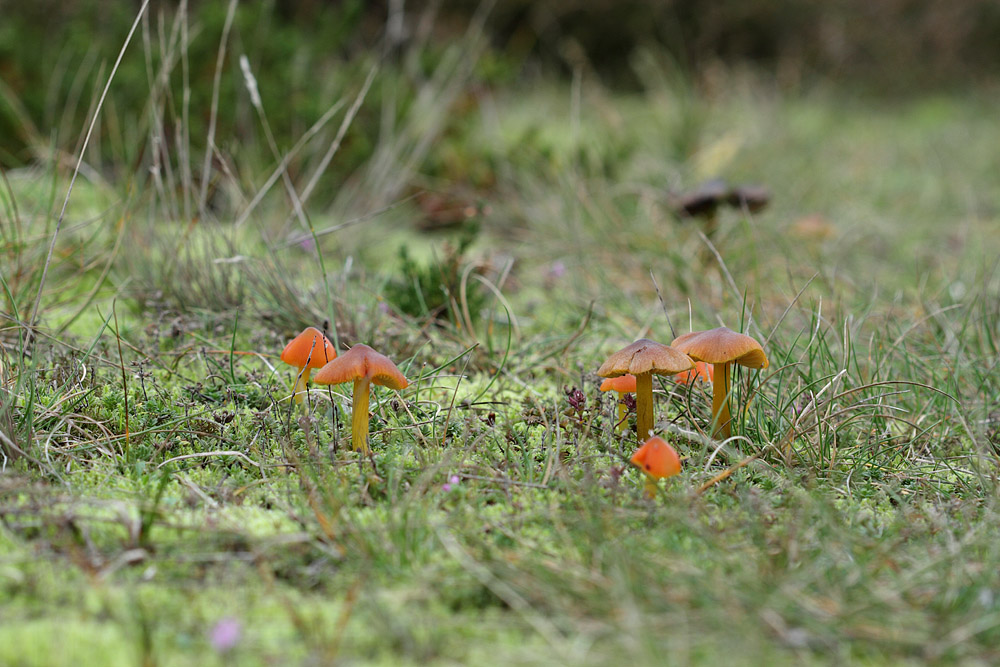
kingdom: Fungi
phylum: Basidiomycota
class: Agaricomycetes
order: Agaricales
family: Hygrophoraceae
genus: Hygrocybe
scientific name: Hygrocybe conica
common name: kegle-vokshat
